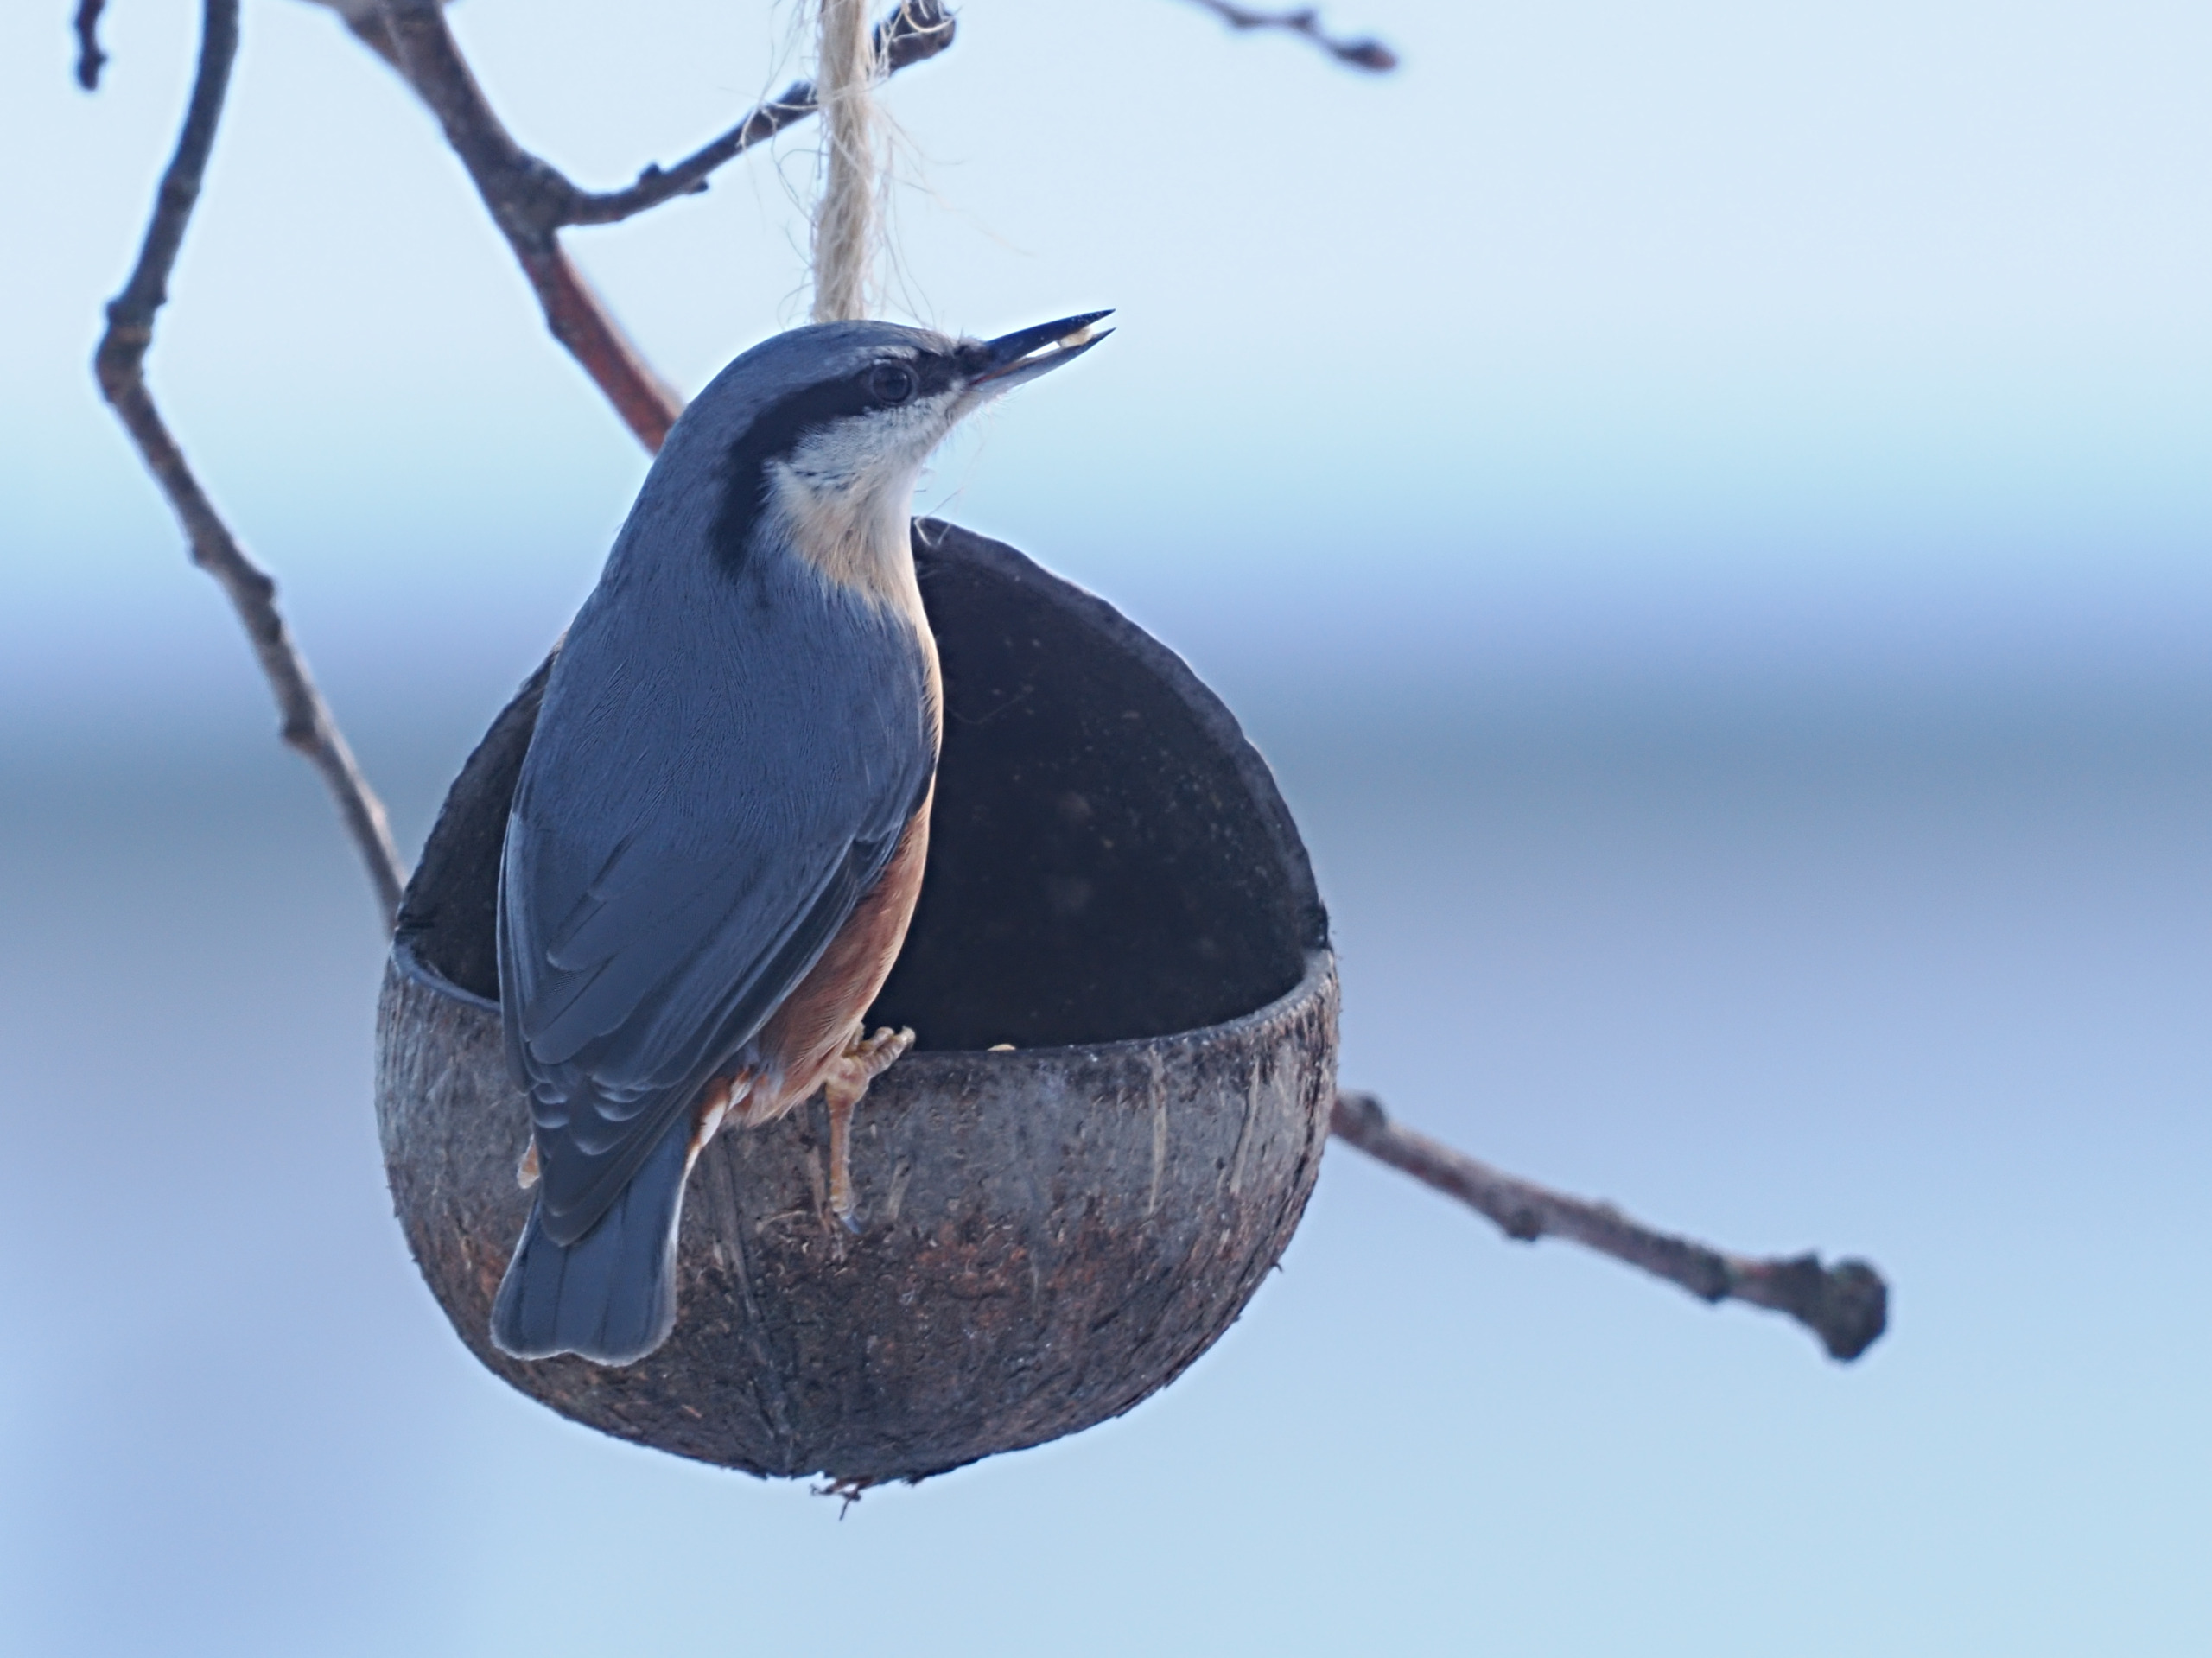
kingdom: Animalia
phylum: Chordata
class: Aves
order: Passeriformes
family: Sittidae
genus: Sitta
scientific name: Sitta europaea
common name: Spætmejse
